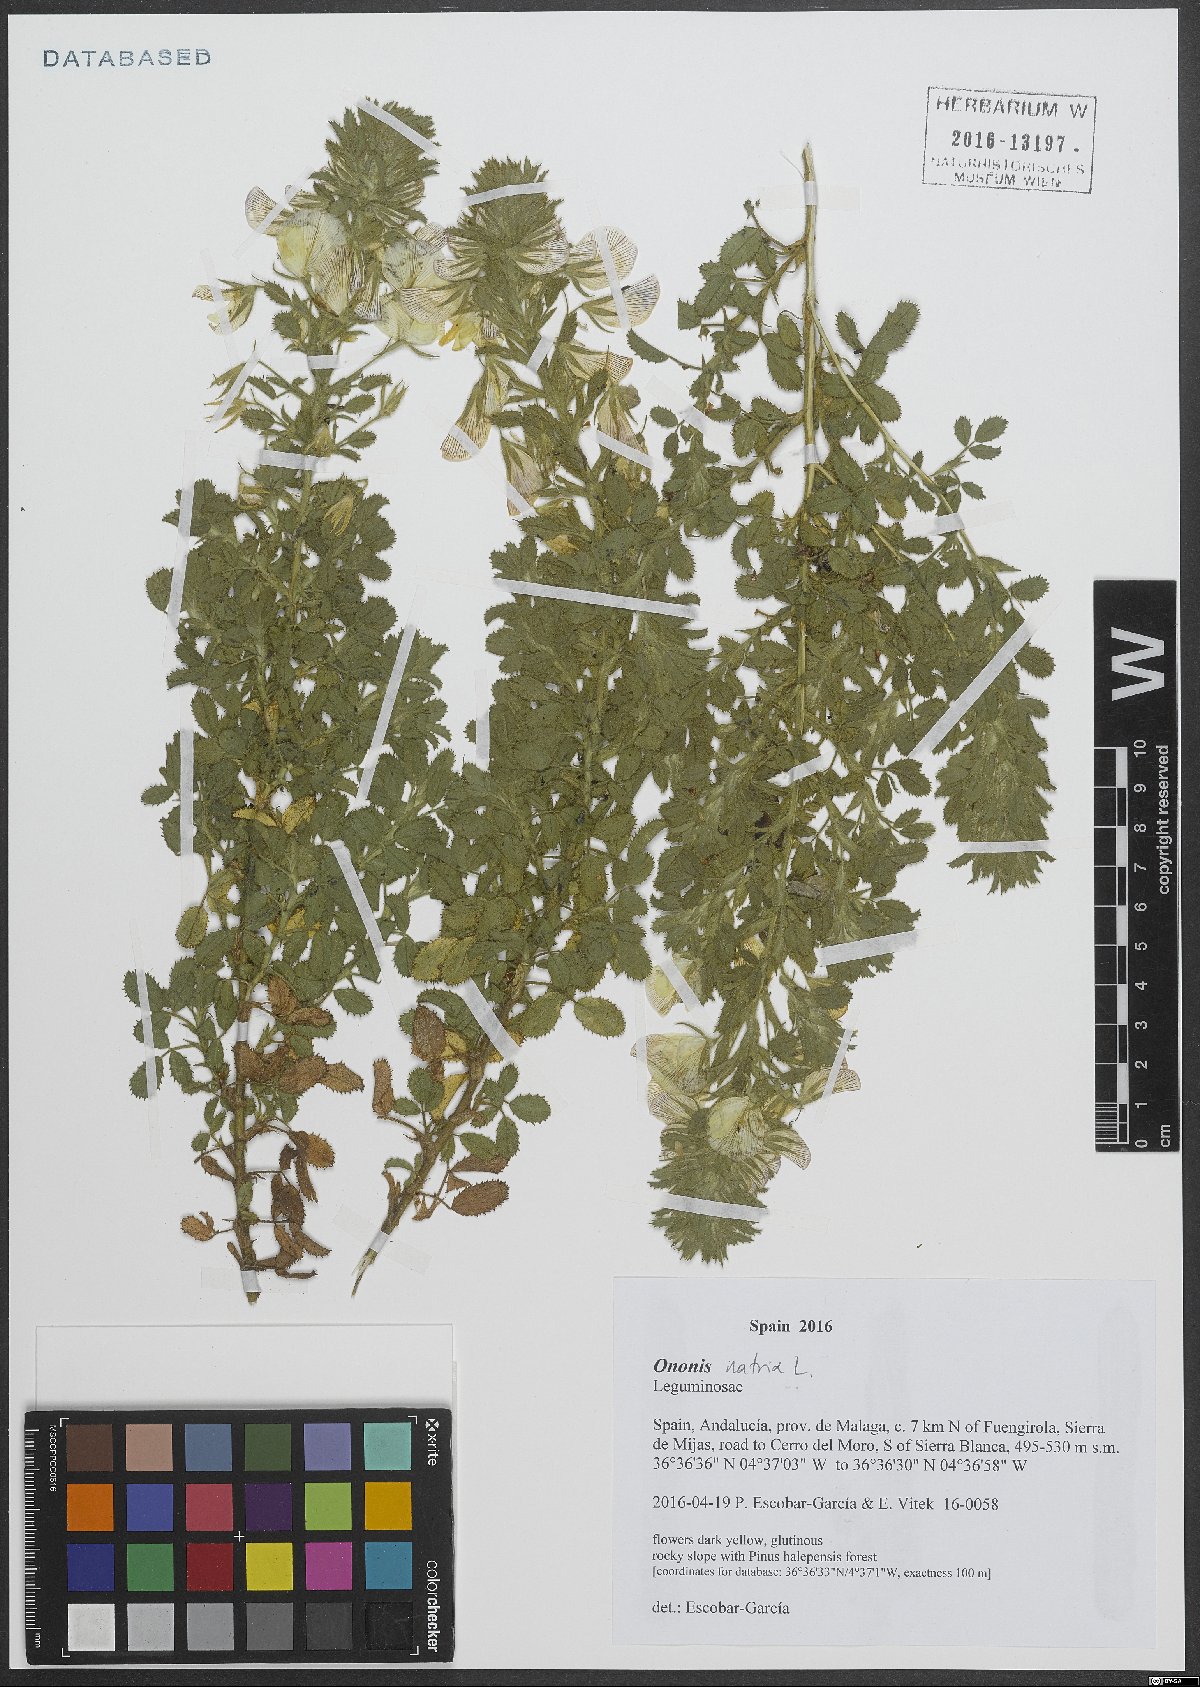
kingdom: Plantae
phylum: Tracheophyta
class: Magnoliopsida
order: Fabales
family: Fabaceae
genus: Ononis
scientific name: Ononis natrix
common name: Yellow restharrow
